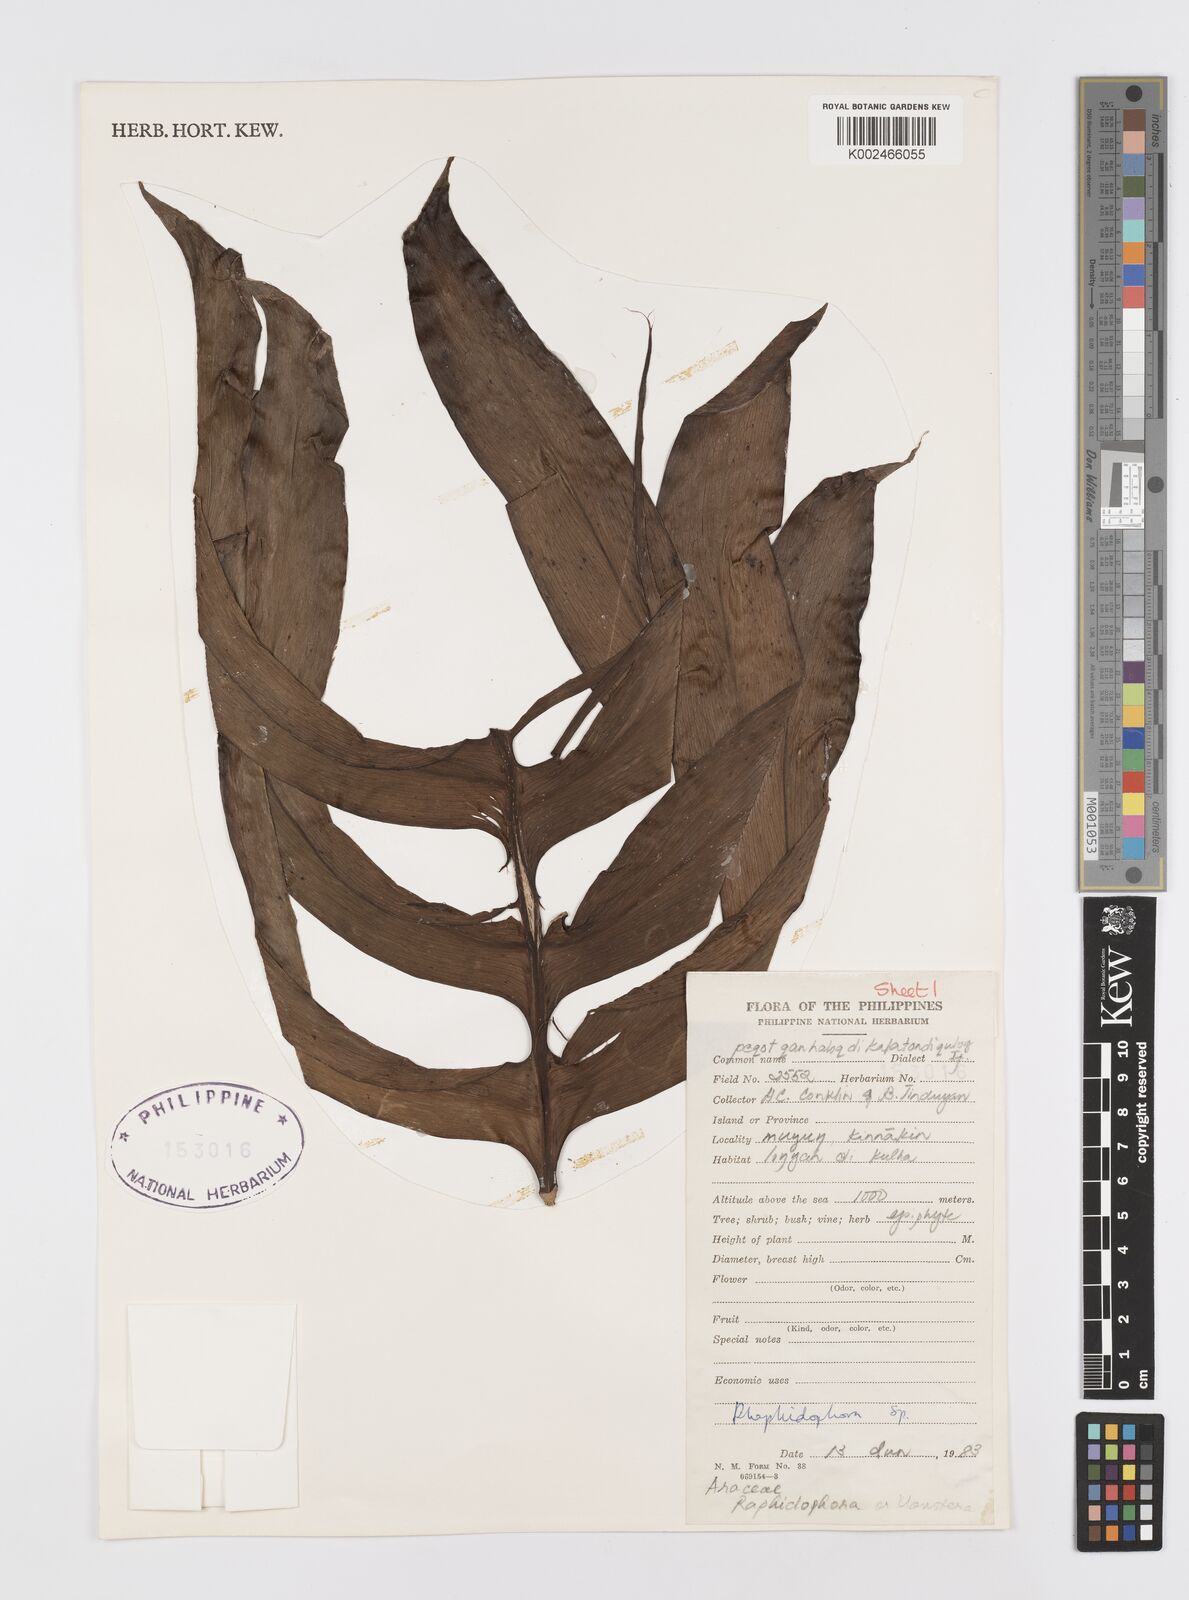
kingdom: Plantae
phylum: Tracheophyta
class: Liliopsida
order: Alismatales
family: Araceae
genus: Rhaphidophora
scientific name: Rhaphidophora korthalsii
